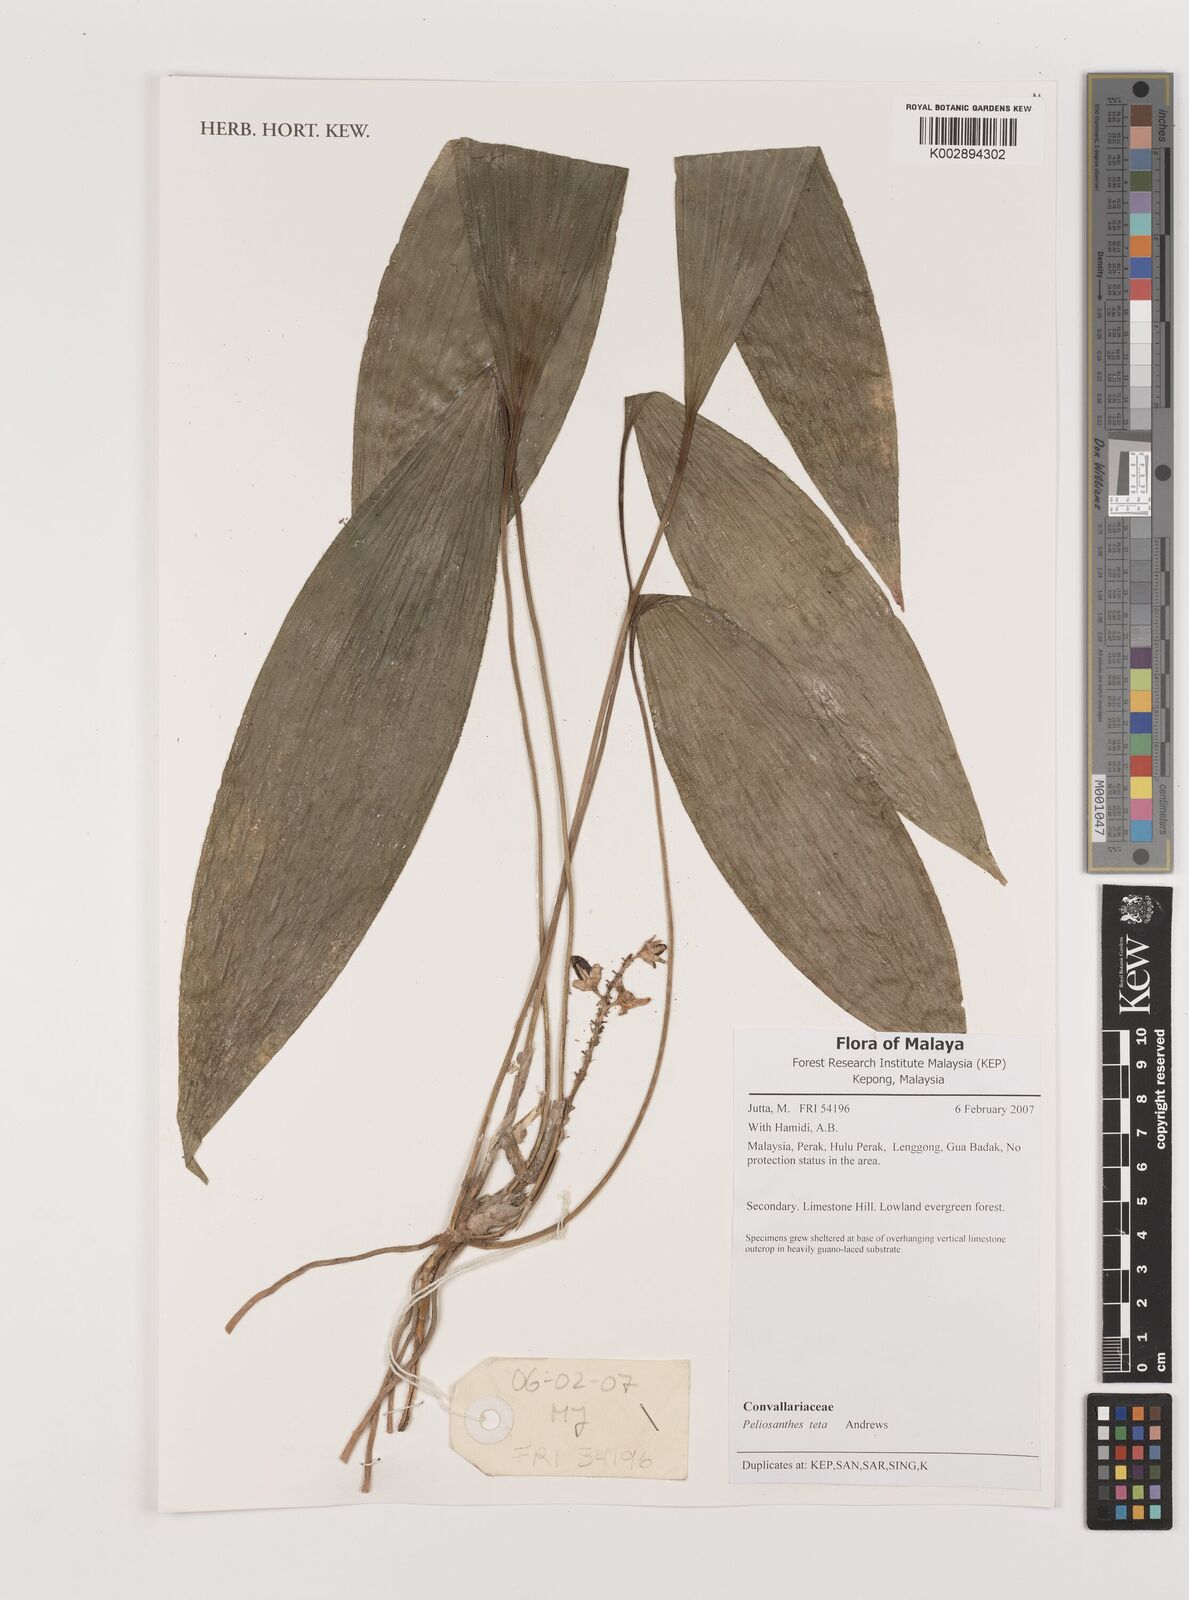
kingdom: Plantae
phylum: Tracheophyta
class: Liliopsida
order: Asparagales
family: Asparagaceae
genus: Peliosanthes
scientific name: Peliosanthes teta
